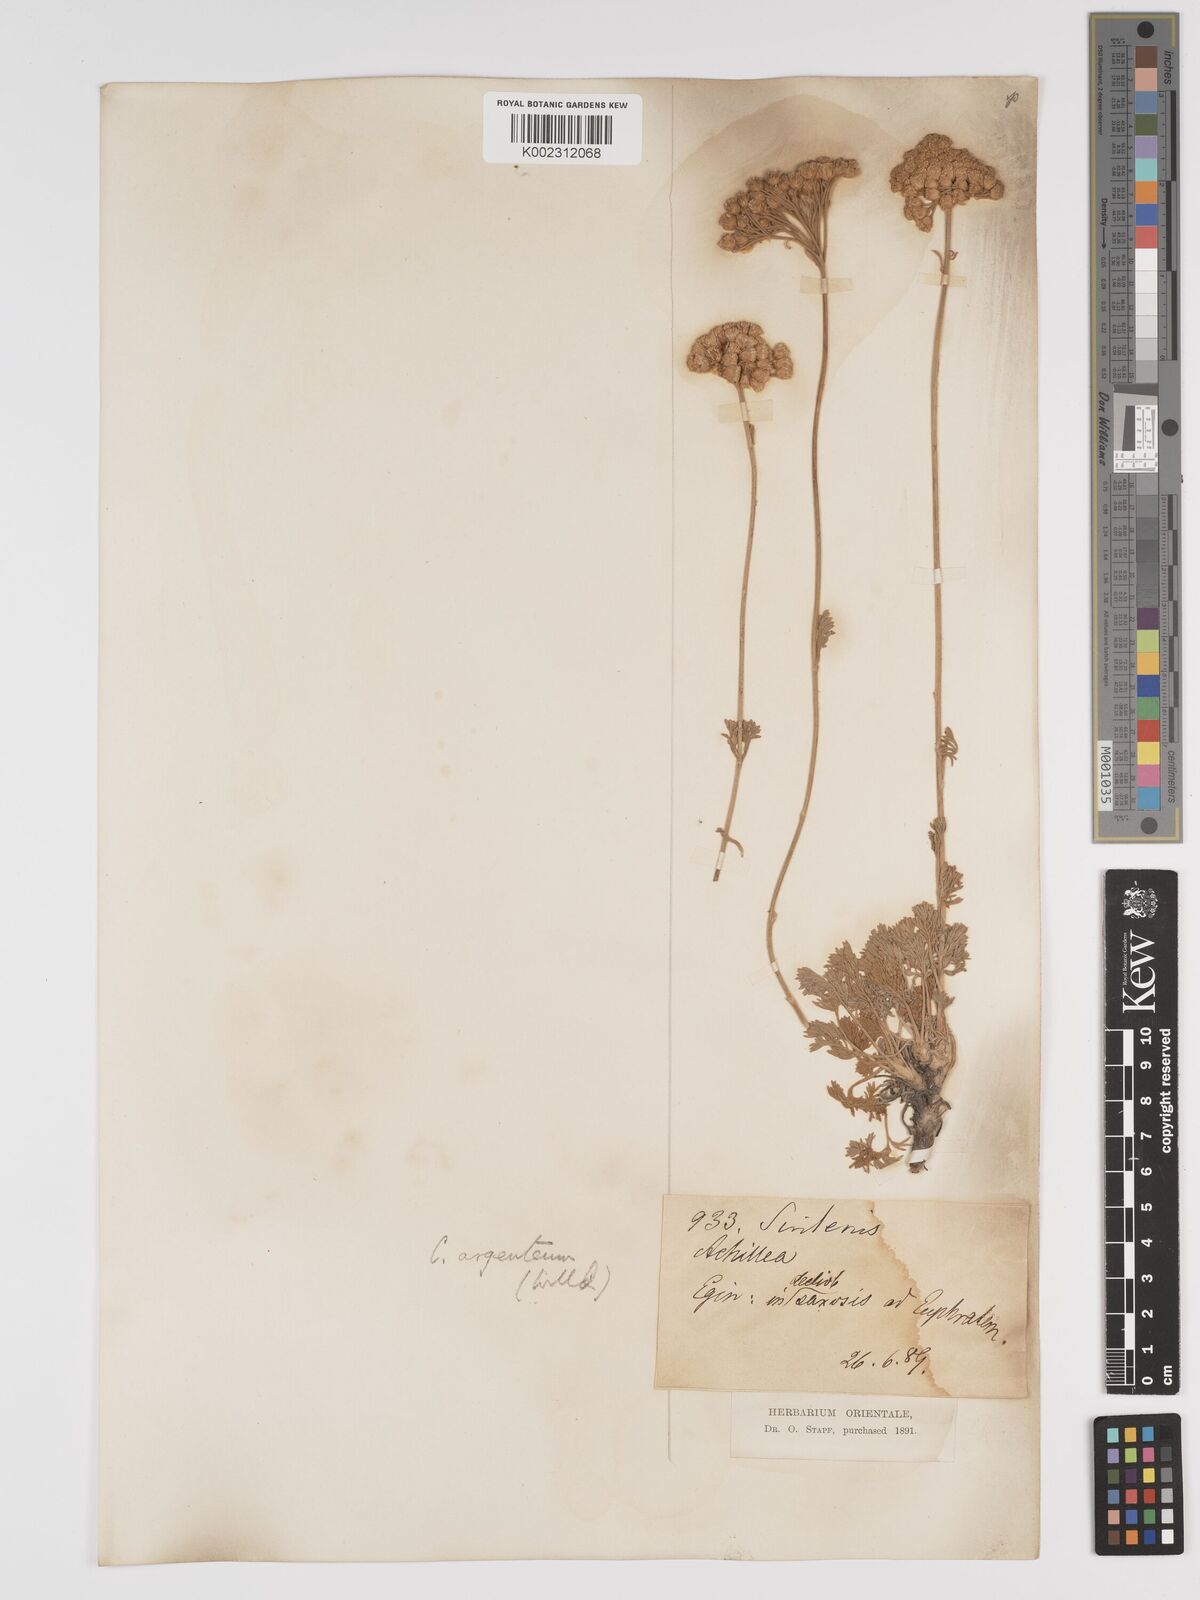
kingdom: Plantae
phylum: Tracheophyta
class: Magnoliopsida
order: Asterales
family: Asteraceae
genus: Tanacetum
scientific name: Tanacetum argenteum
